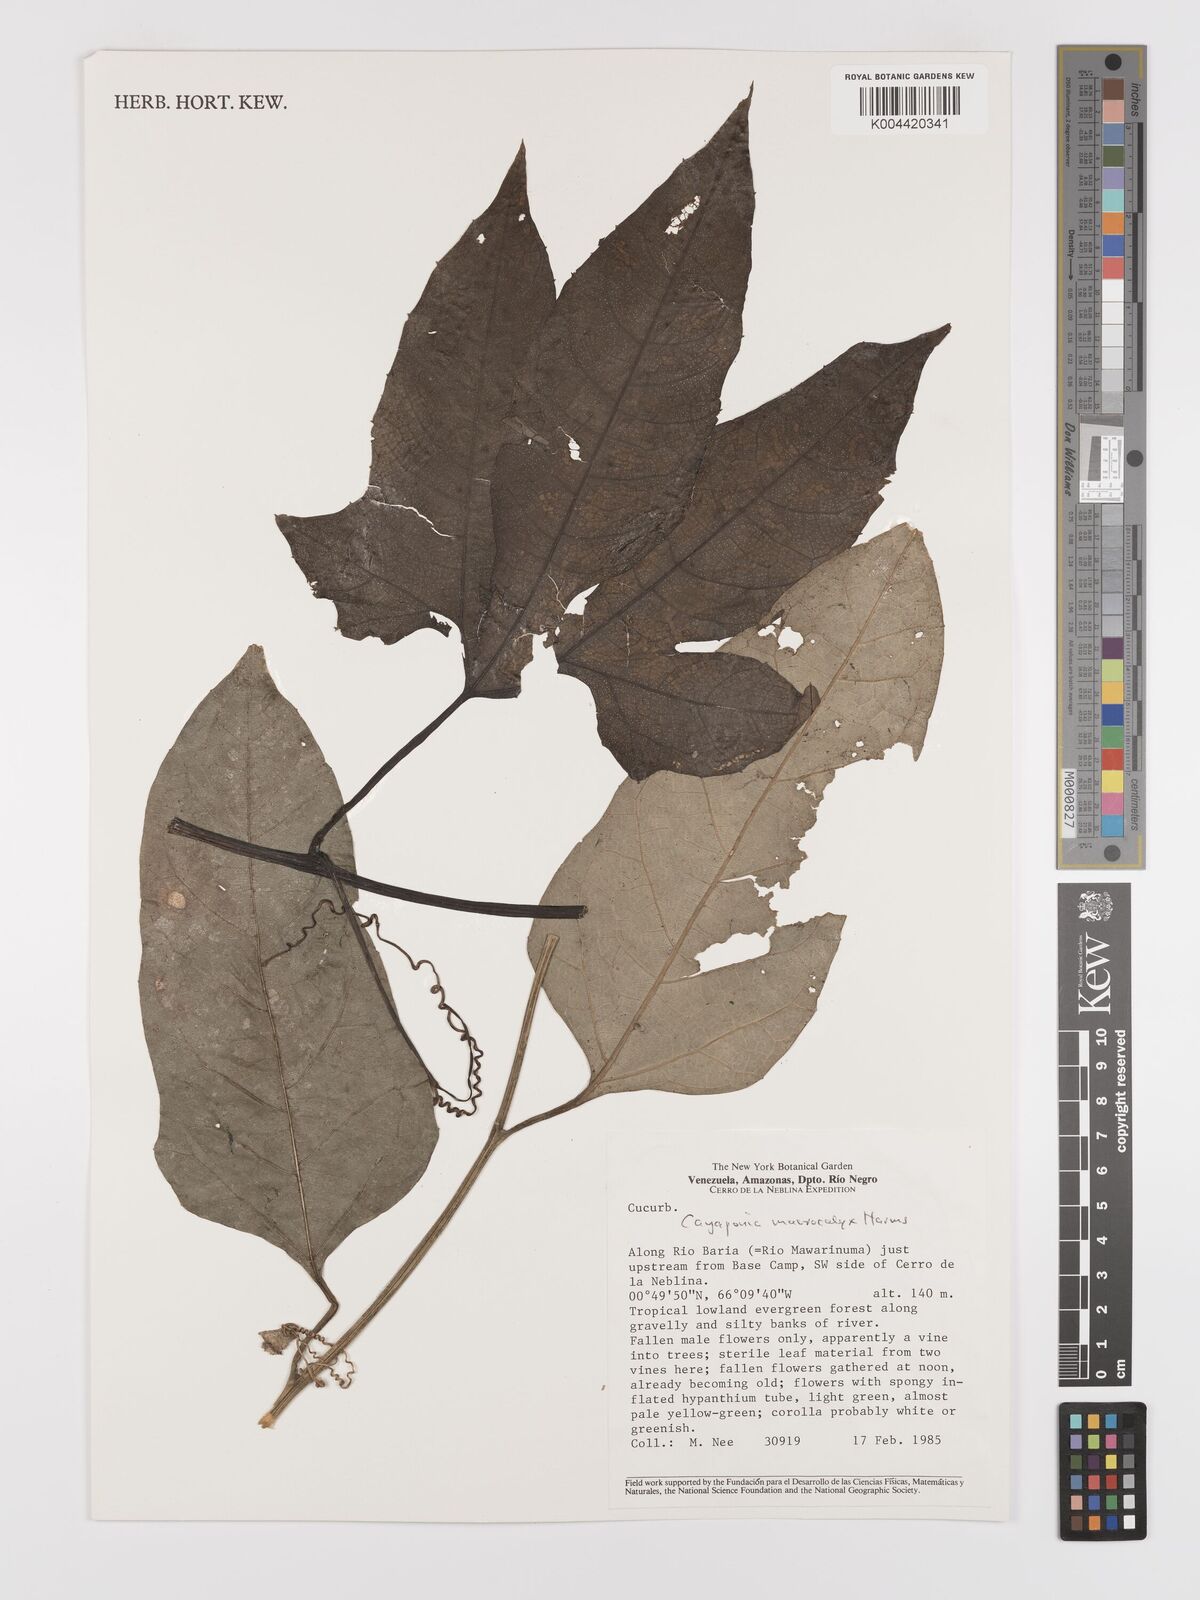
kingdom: Plantae
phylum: Tracheophyta
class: Magnoliopsida
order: Cucurbitales
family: Cucurbitaceae
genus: Cayaponia
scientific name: Cayaponia macrocalyx
